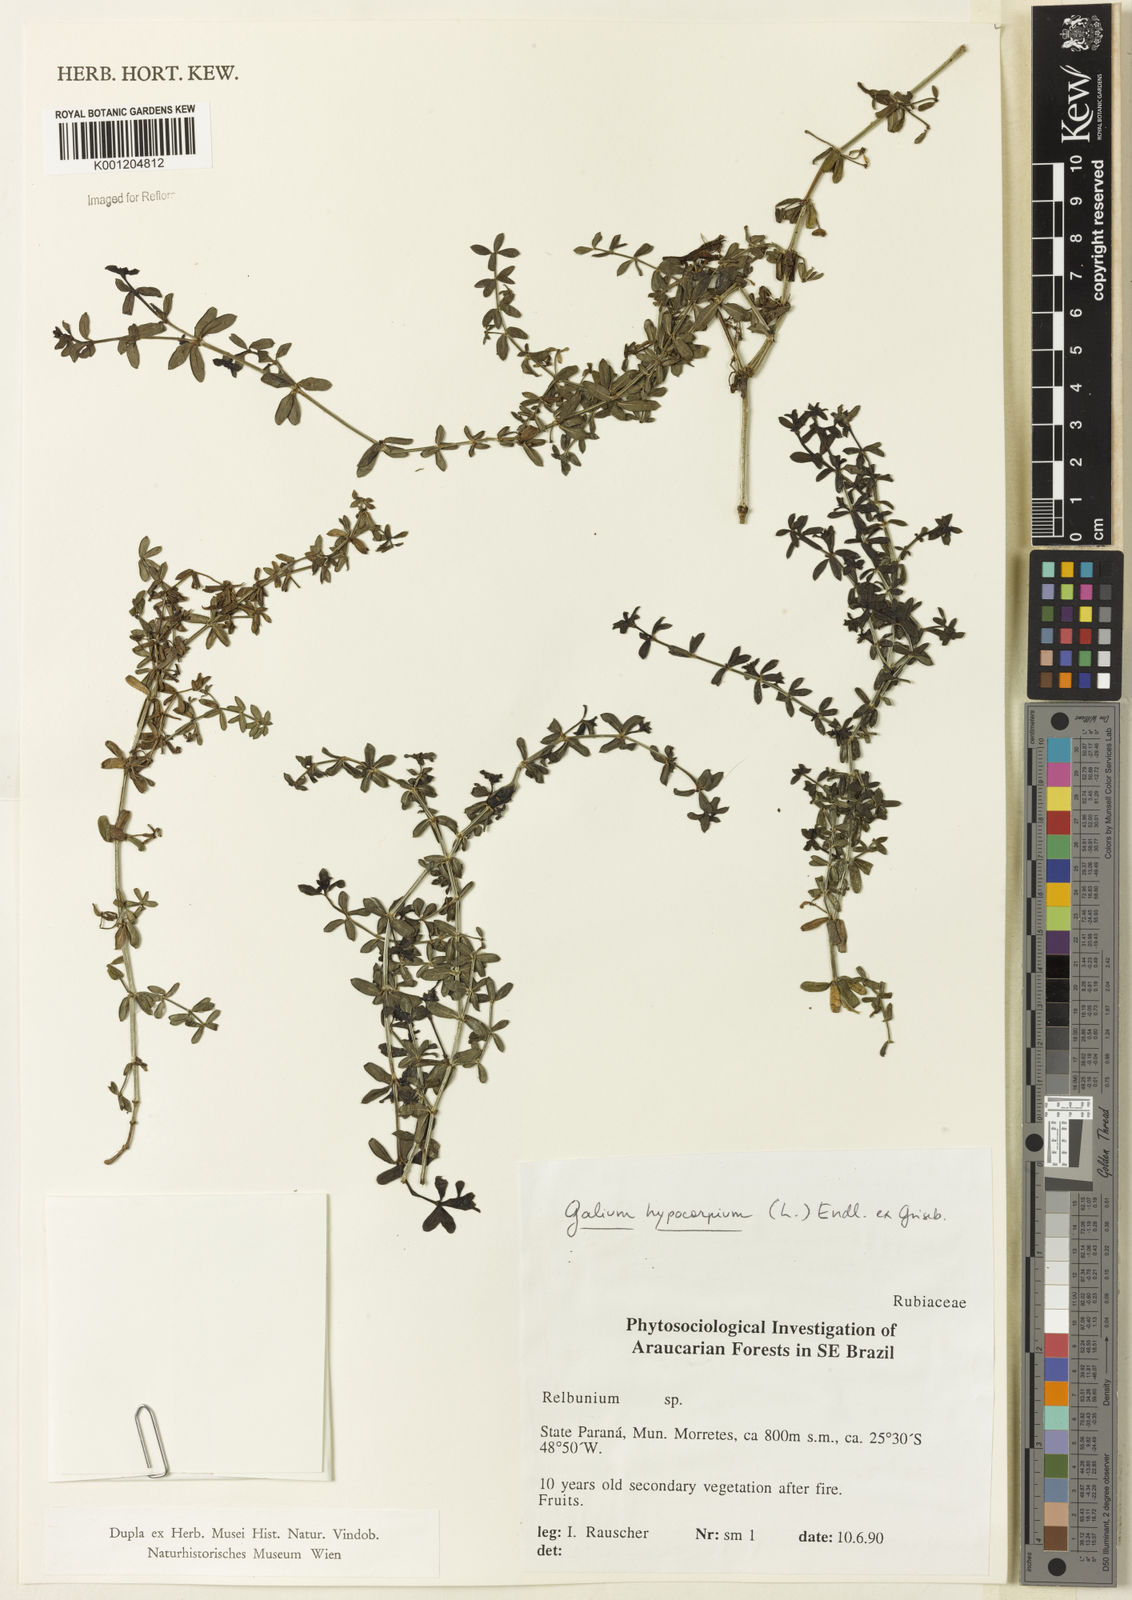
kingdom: Plantae
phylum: Tracheophyta
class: Magnoliopsida
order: Gentianales
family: Rubiaceae
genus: Galium
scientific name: Galium hypocarpium
